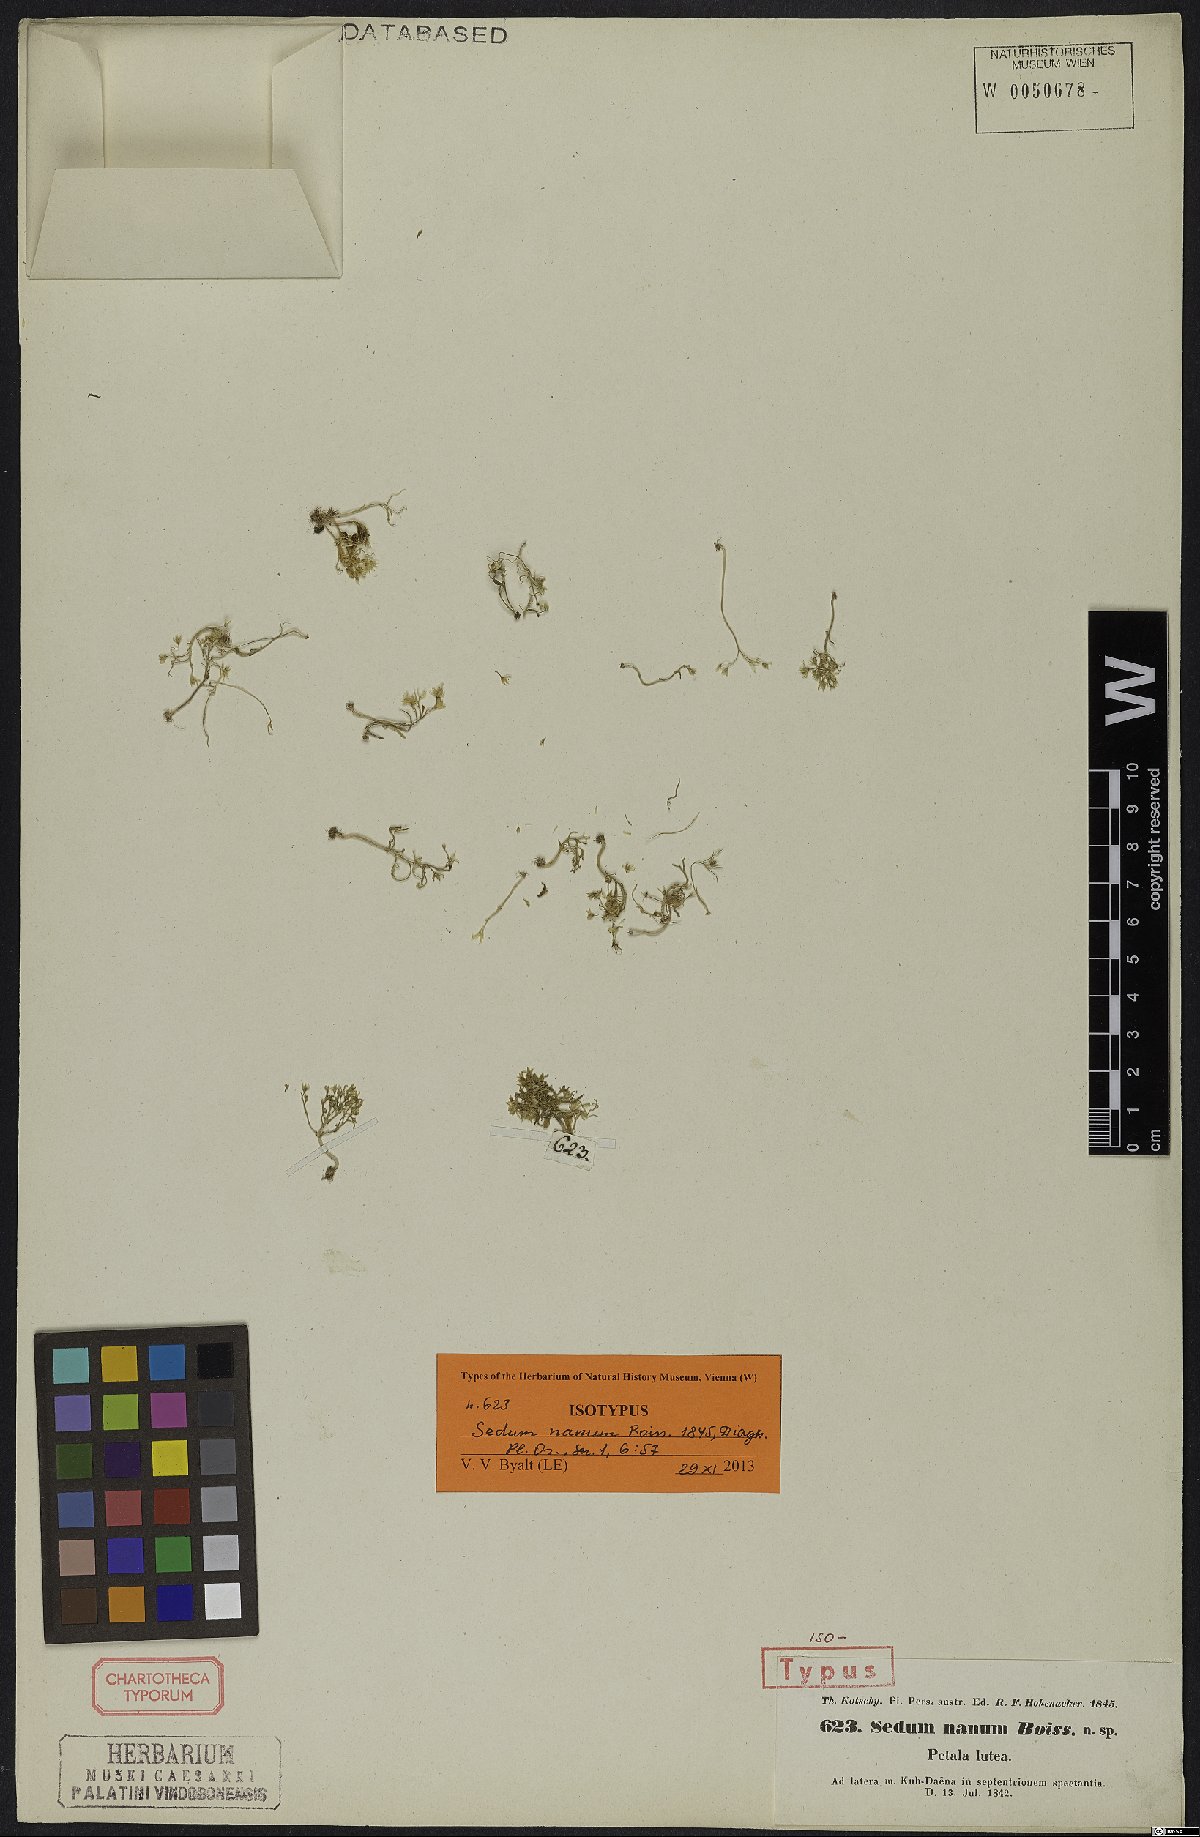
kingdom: Plantae
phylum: Tracheophyta
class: Magnoliopsida
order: Saxifragales
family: Crassulaceae
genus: Sedum
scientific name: Sedum nanum
